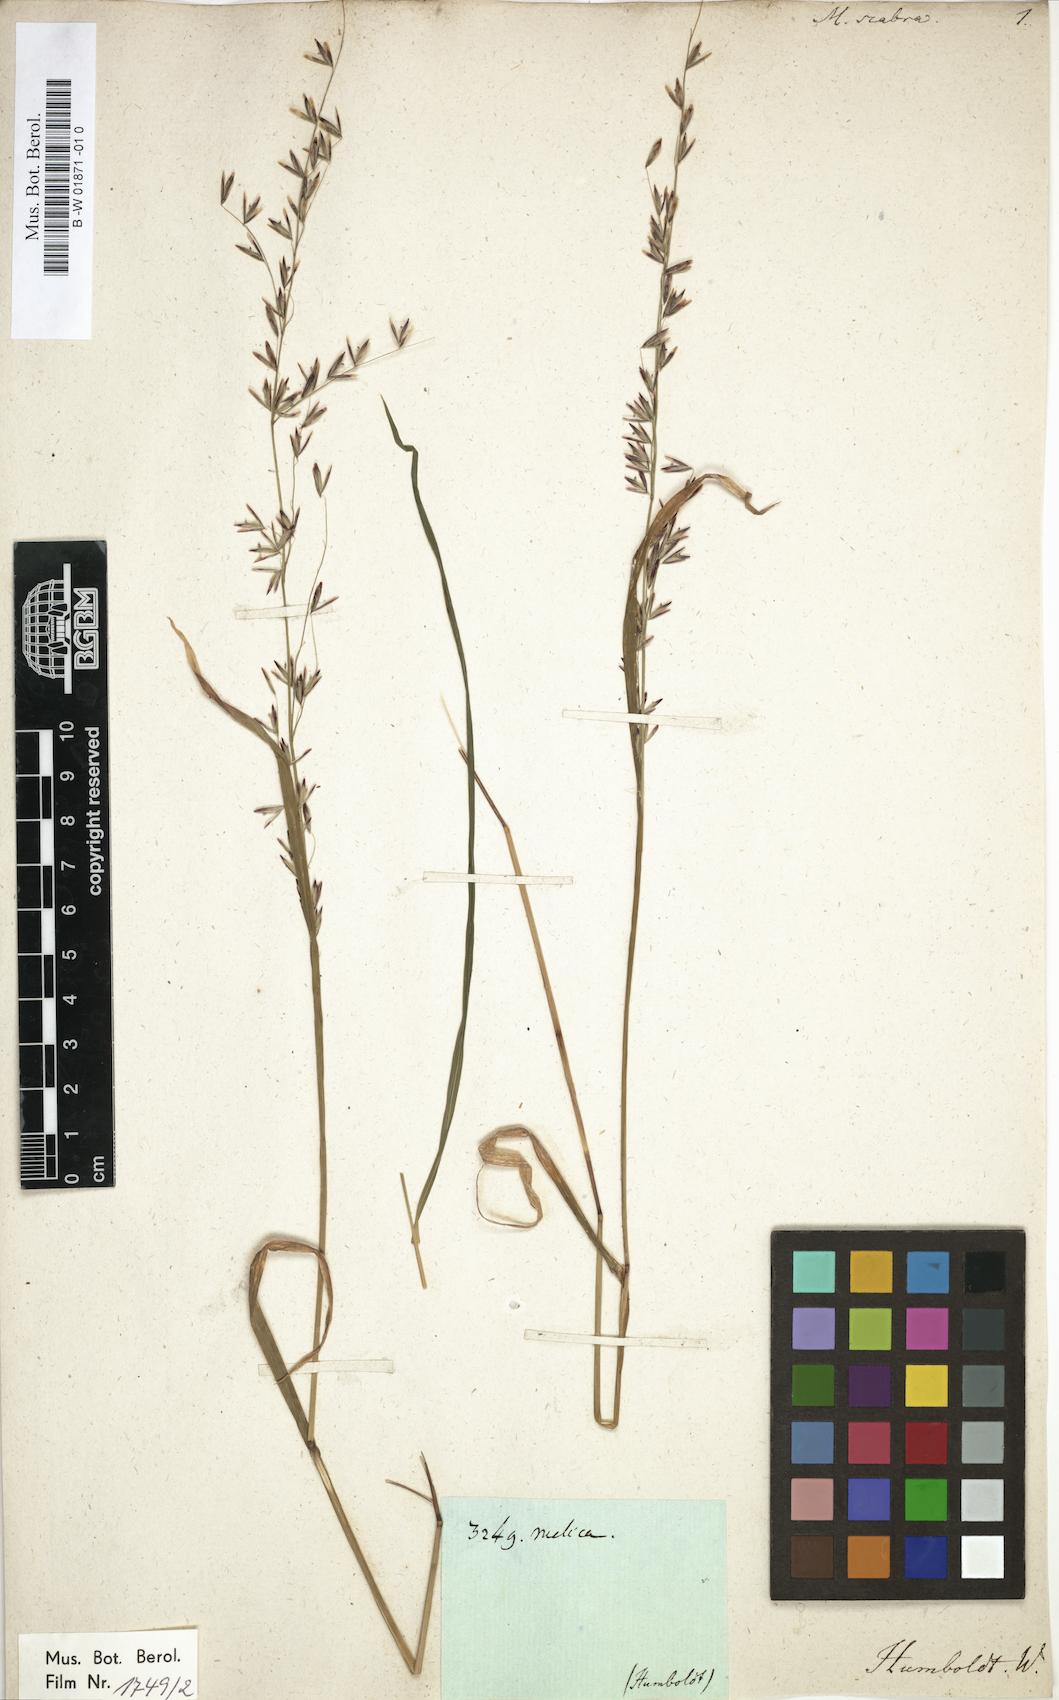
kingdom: Plantae
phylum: Tracheophyta
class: Liliopsida
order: Poales
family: Poaceae
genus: Melica
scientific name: Melica scabra
